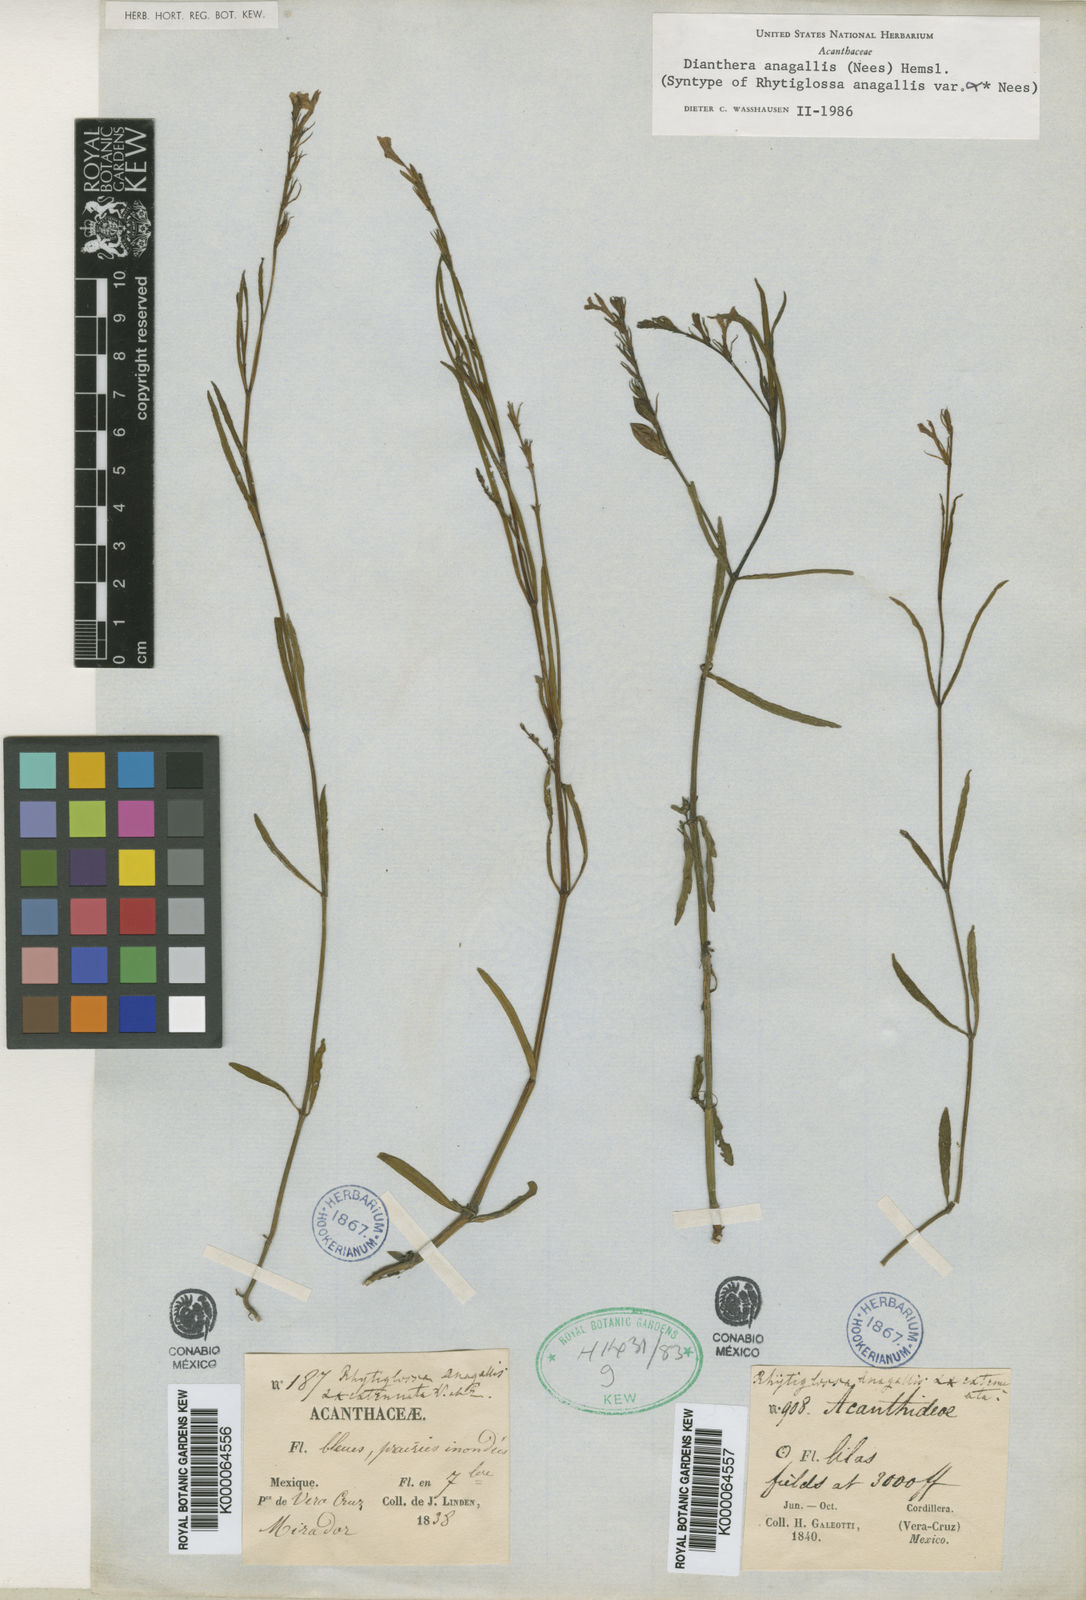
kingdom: Plantae
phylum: Tracheophyta
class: Magnoliopsida
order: Lamiales
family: Acanthaceae
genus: Dianthera
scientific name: Dianthera laevilinguis
